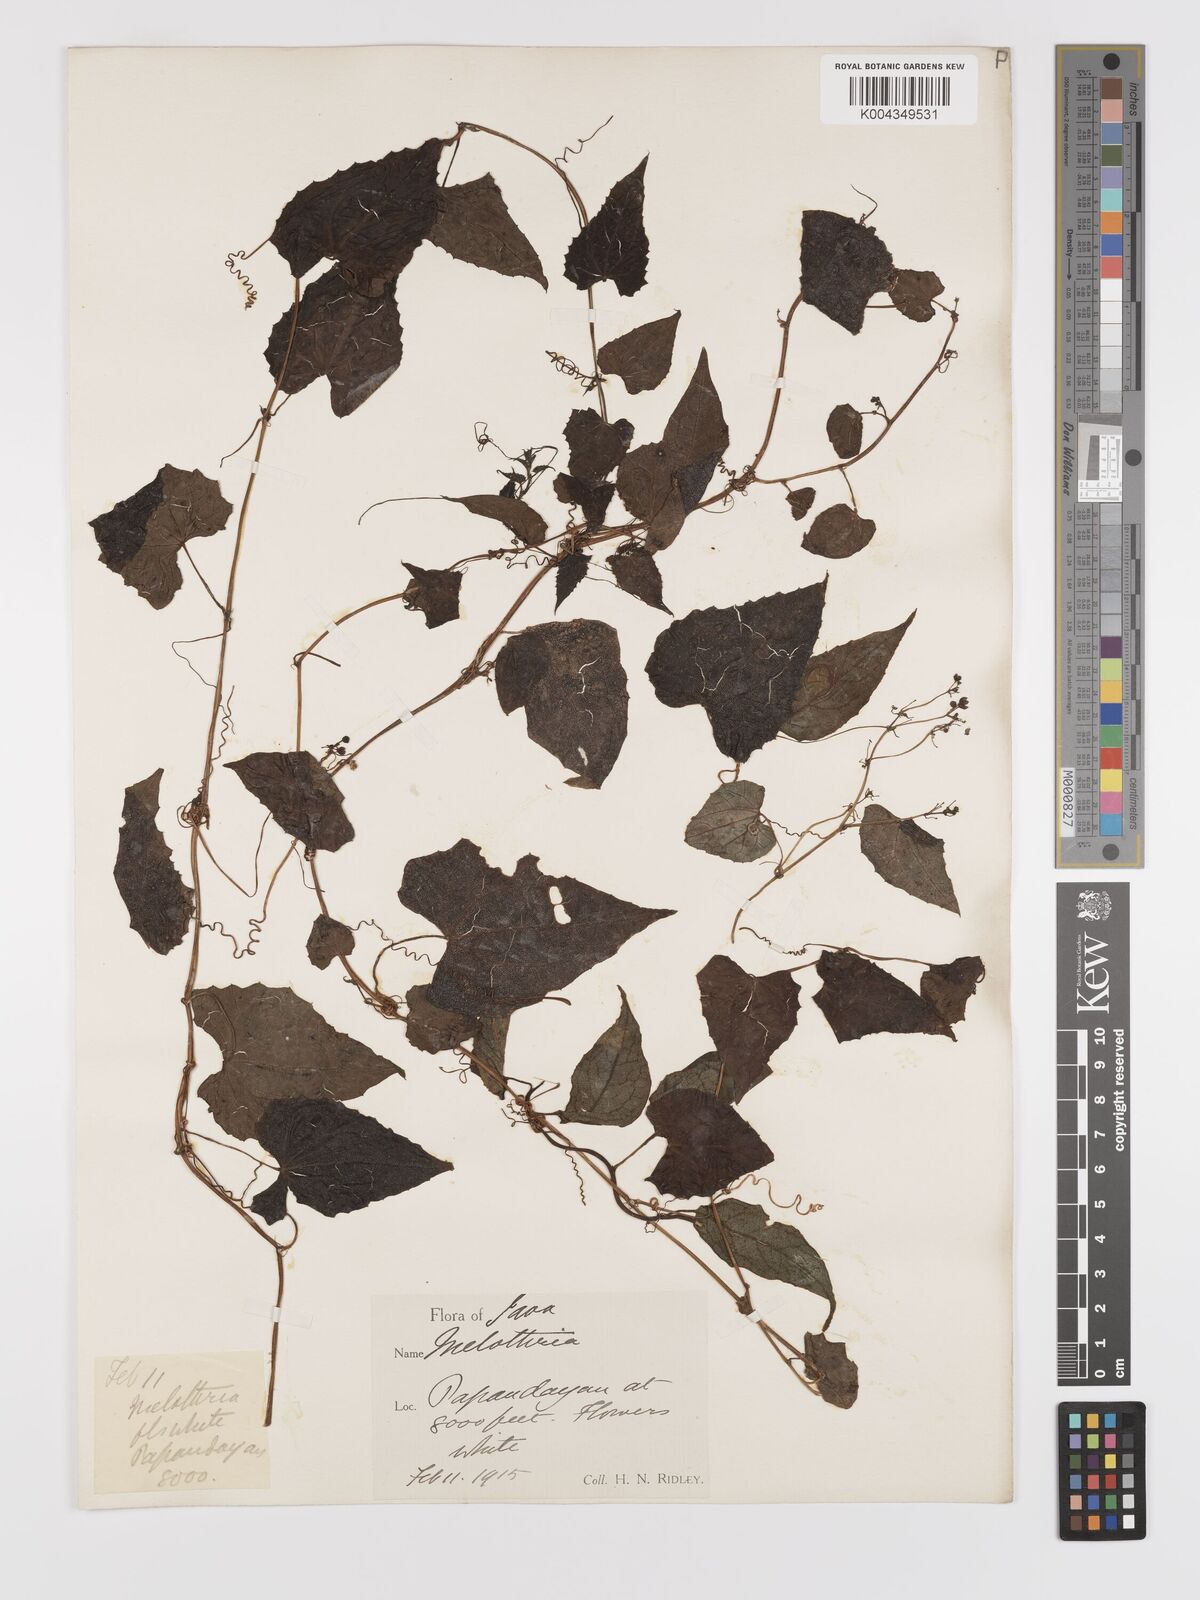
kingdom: Plantae
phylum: Tracheophyta
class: Magnoliopsida
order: Cucurbitales
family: Cucurbitaceae
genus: Zehneria
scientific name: Zehneria scabra
